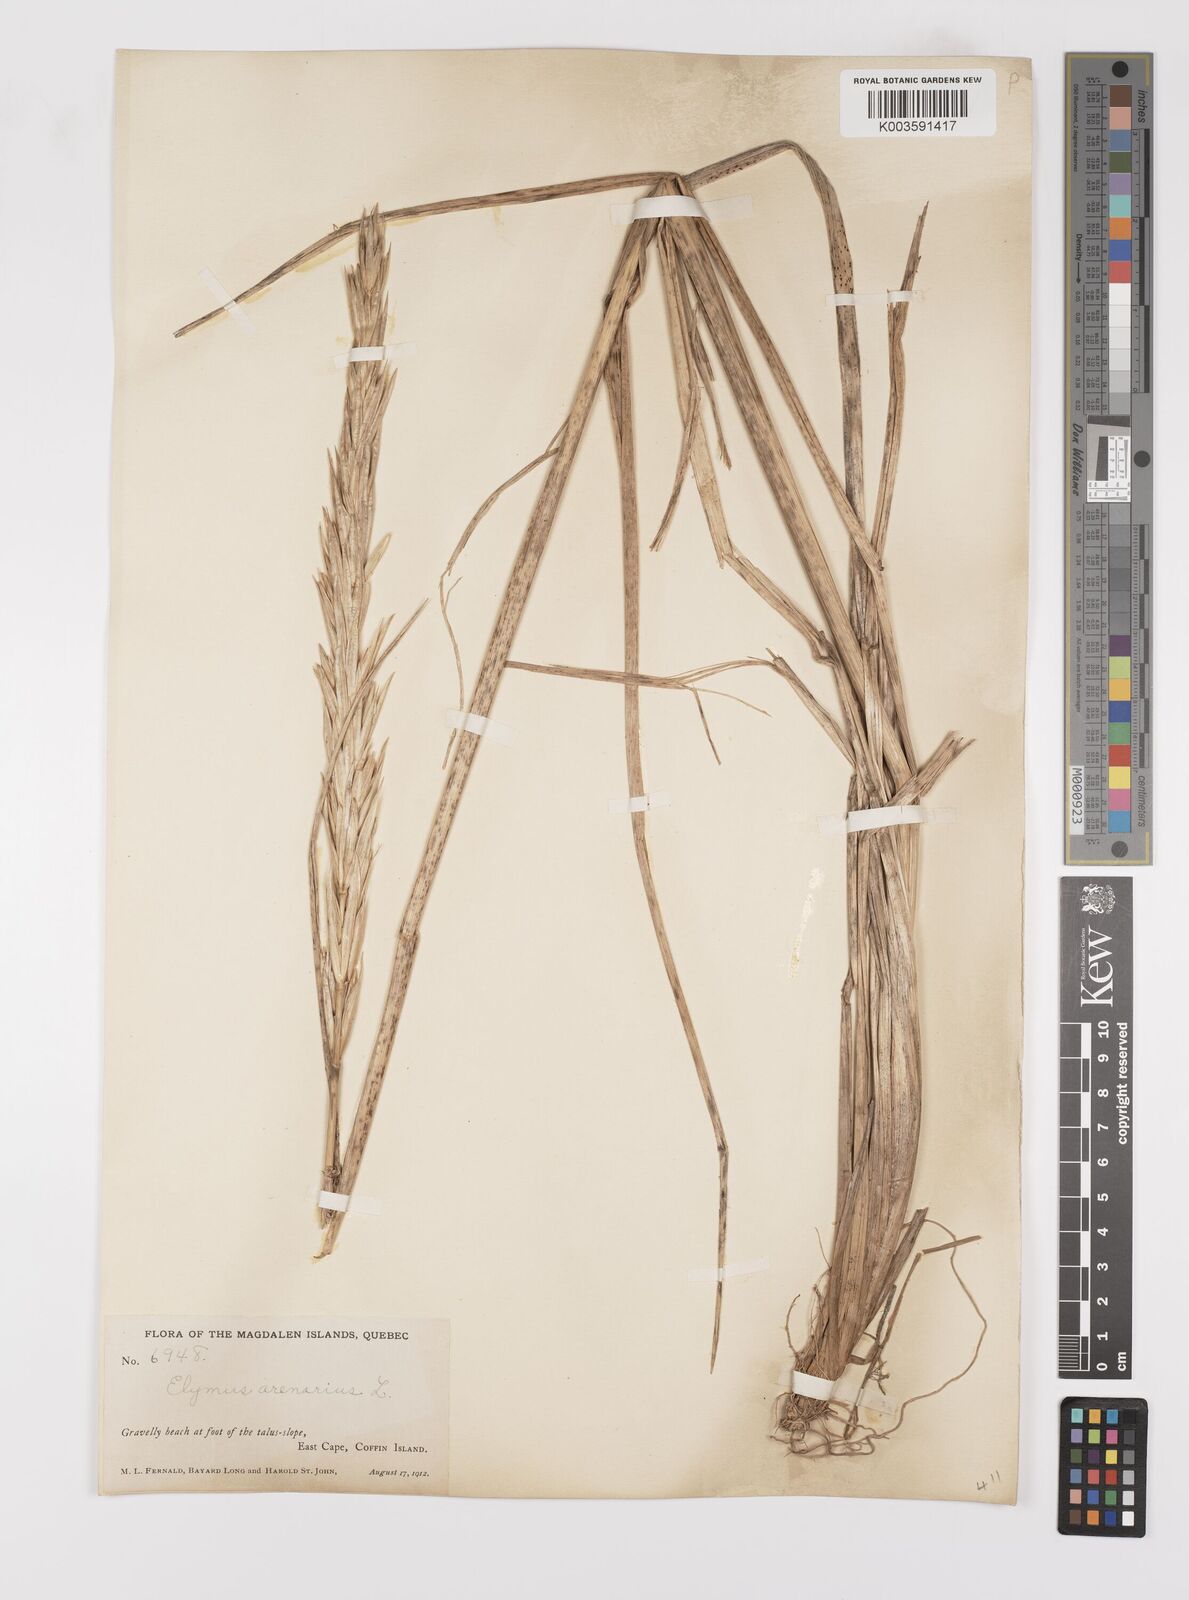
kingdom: Plantae
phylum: Tracheophyta
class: Liliopsida
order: Poales
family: Poaceae
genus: Leymus
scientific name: Leymus mollis
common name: American dune grass
